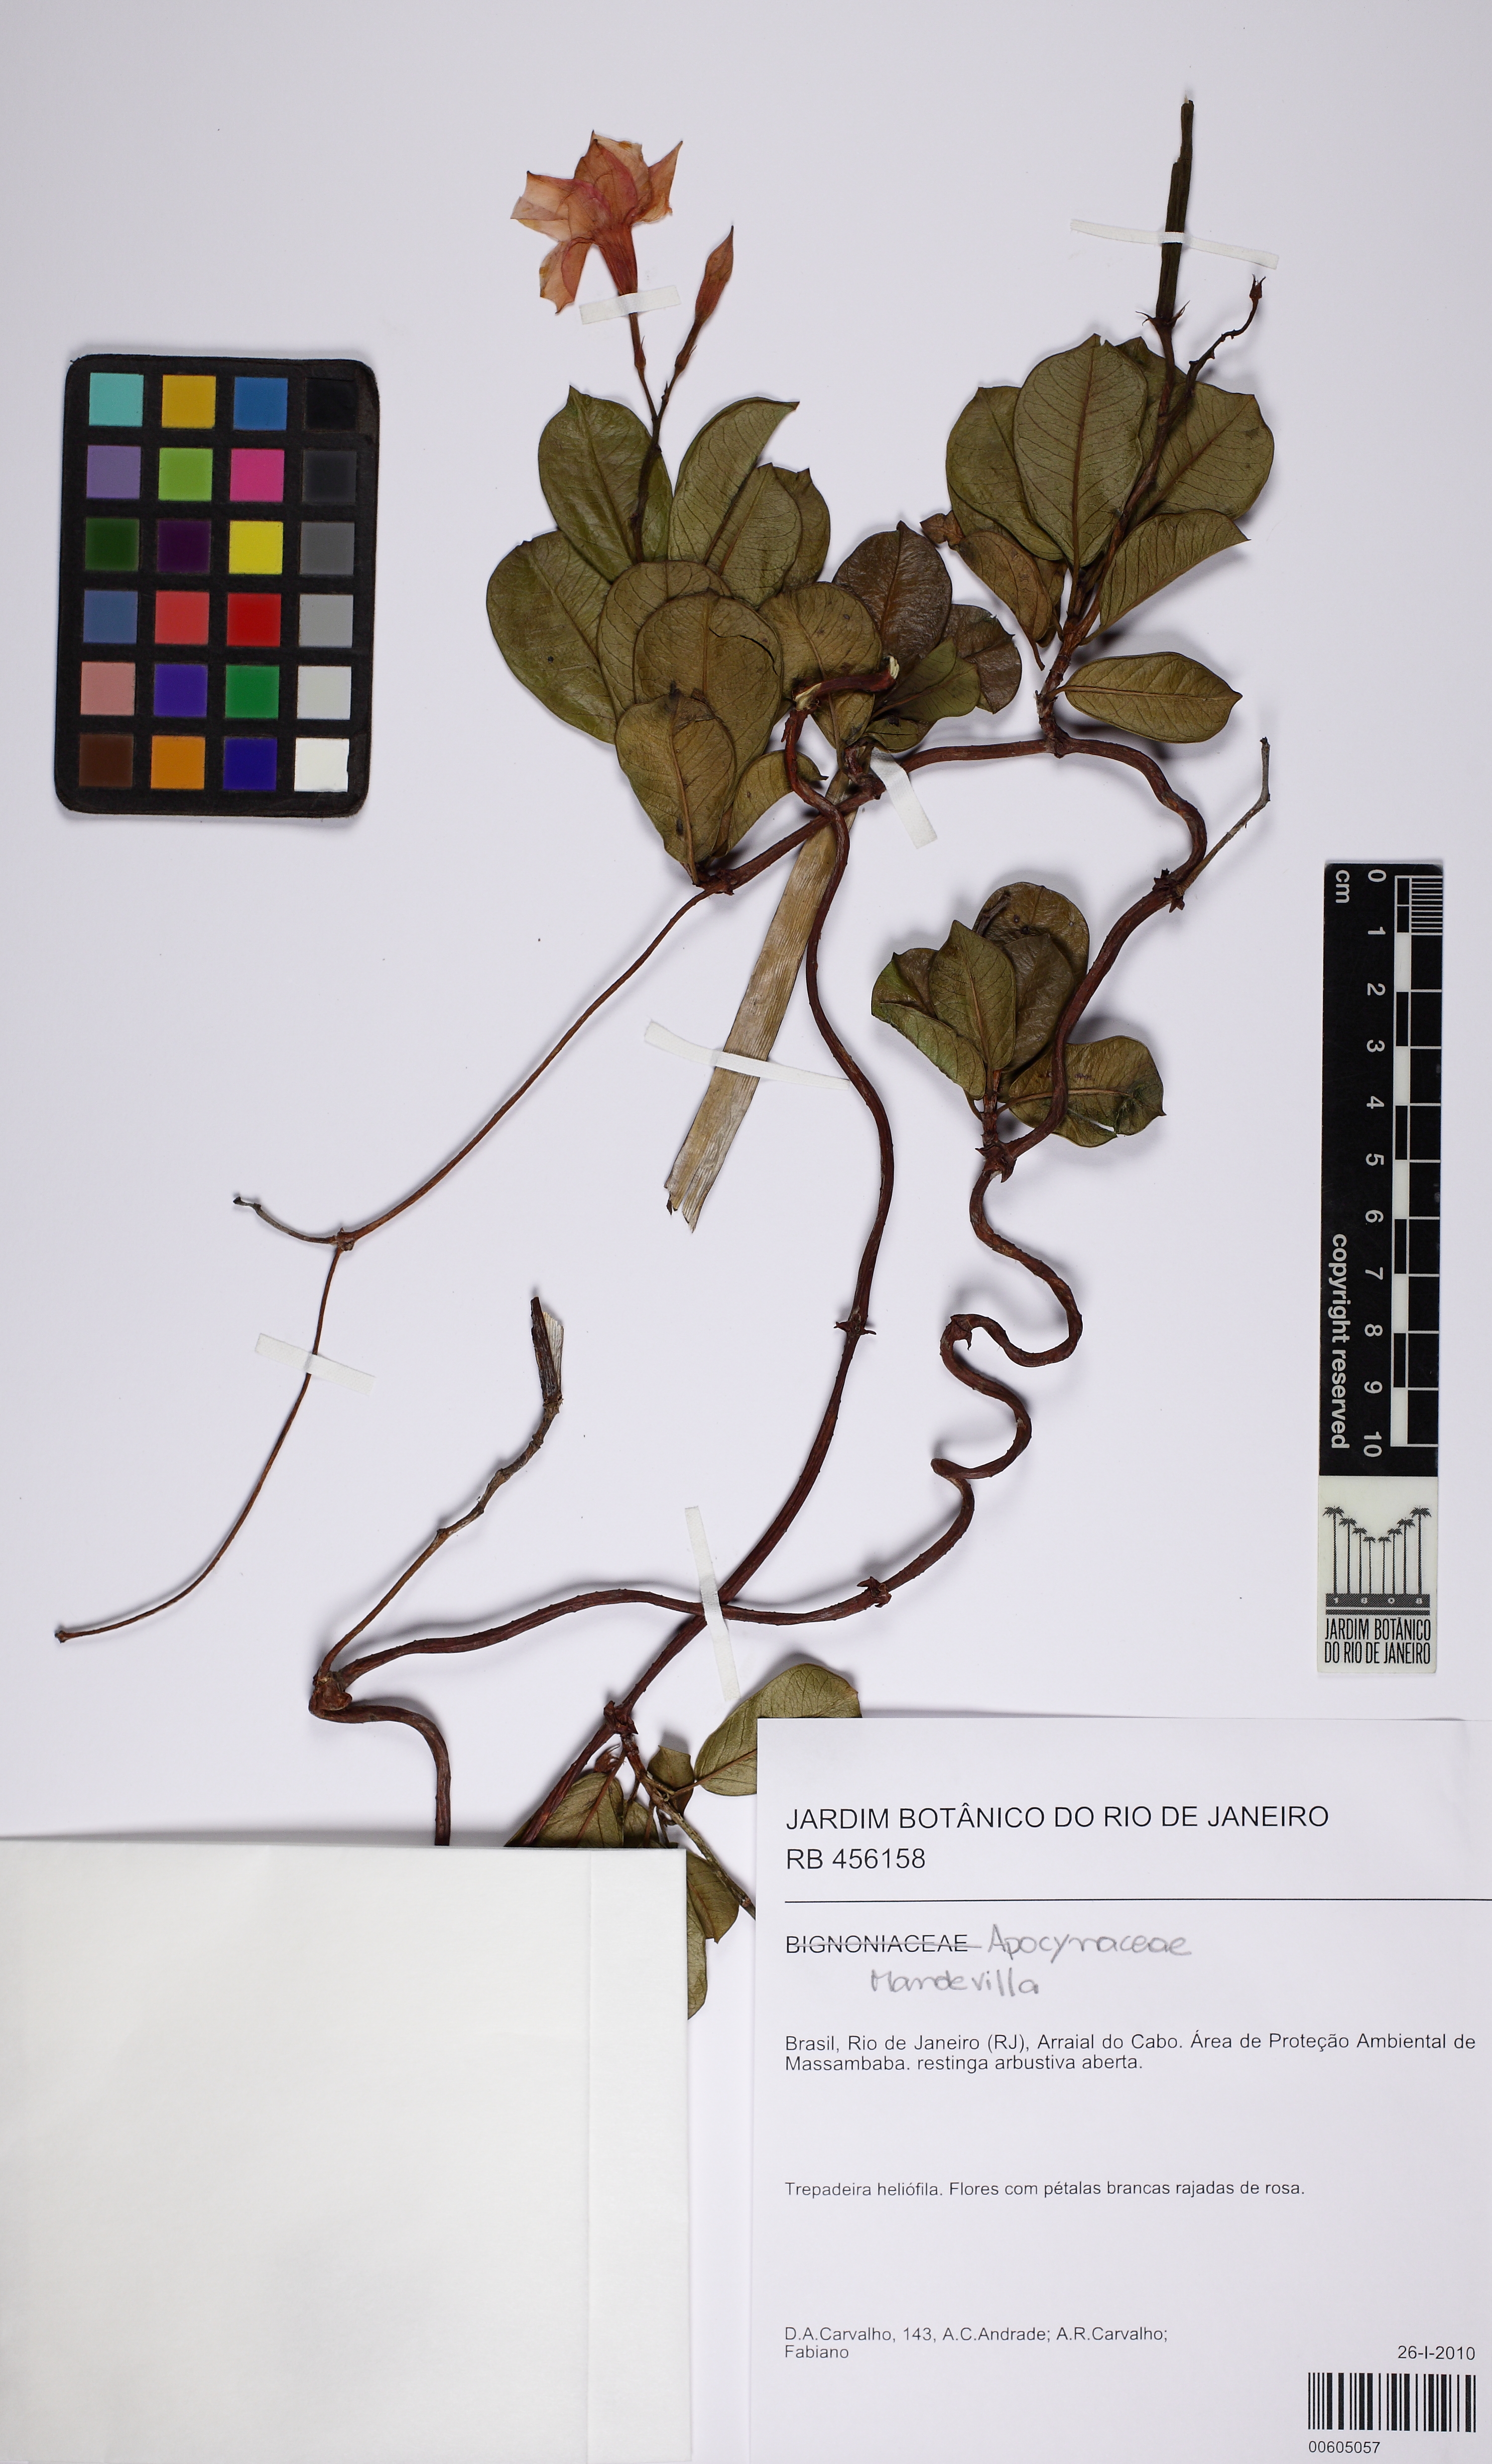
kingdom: Plantae
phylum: Tracheophyta
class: Magnoliopsida
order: Gentianales
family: Apocynaceae
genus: Mandevilla
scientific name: Mandevilla
